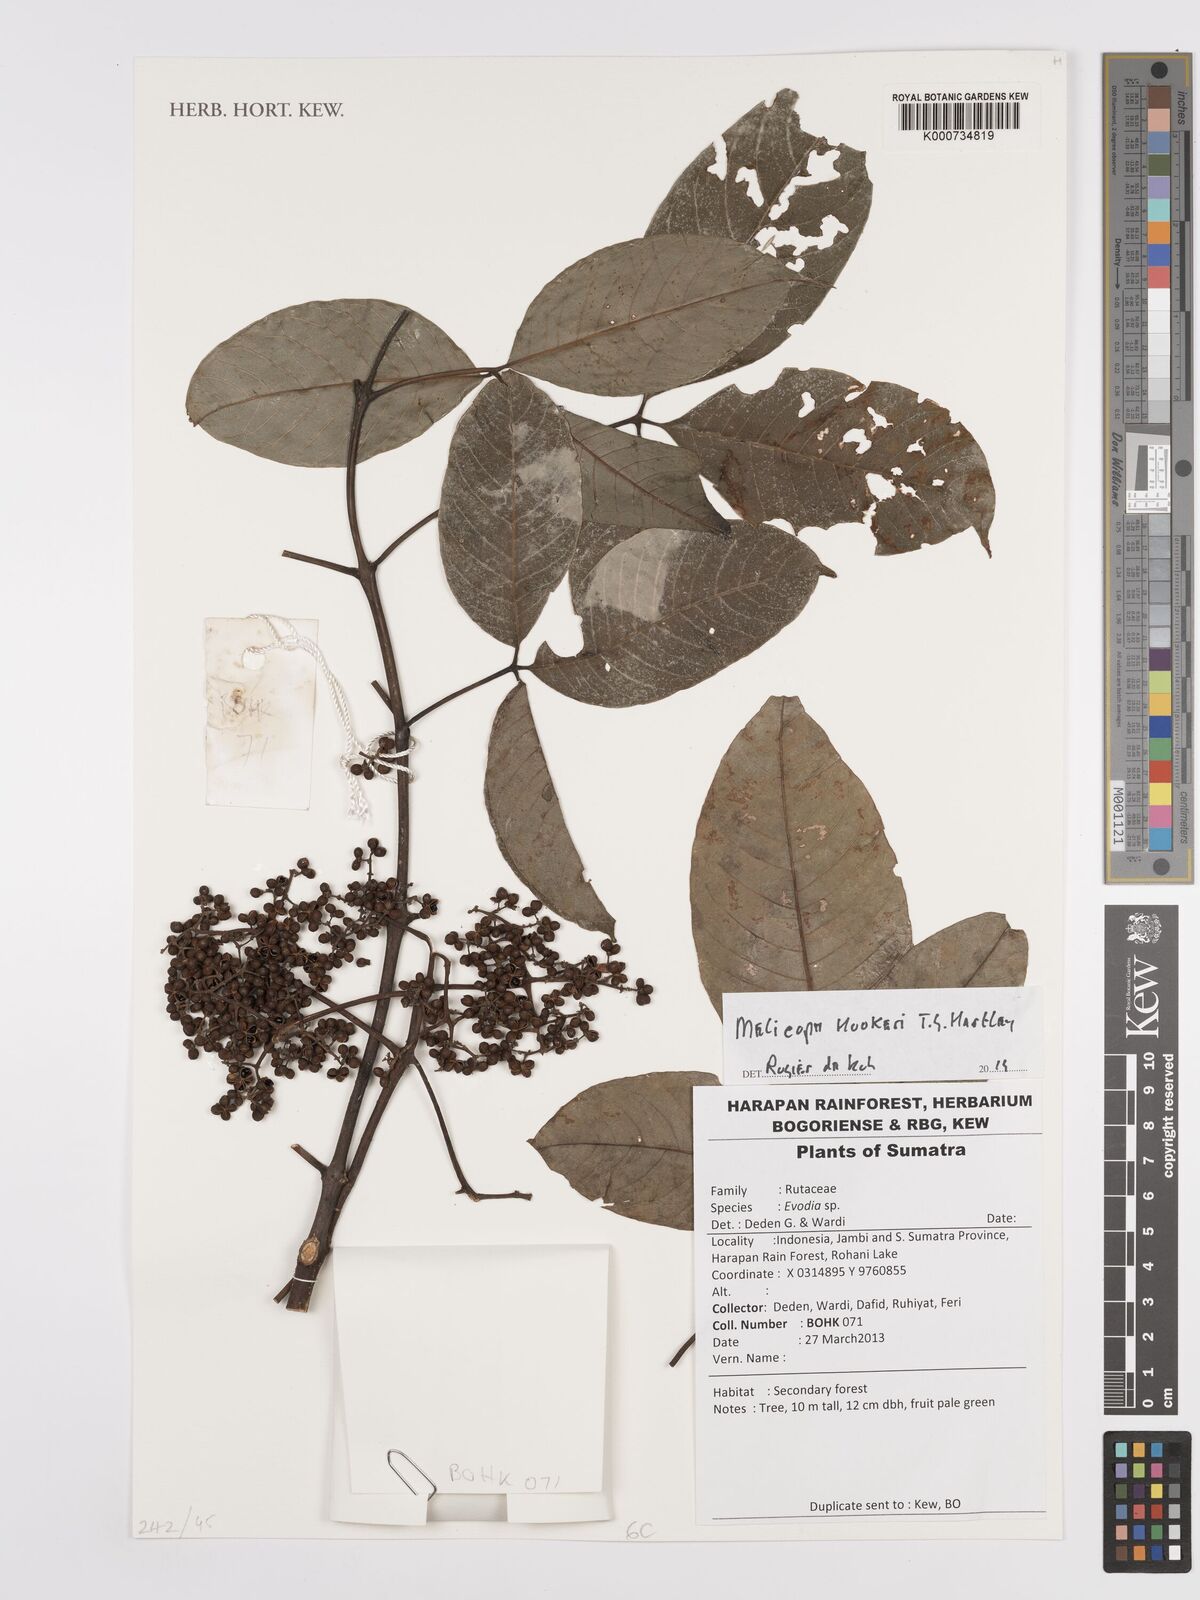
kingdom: Plantae
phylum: Tracheophyta
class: Magnoliopsida
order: Sapindales
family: Rutaceae
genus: Melicope
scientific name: Melicope hookeri
